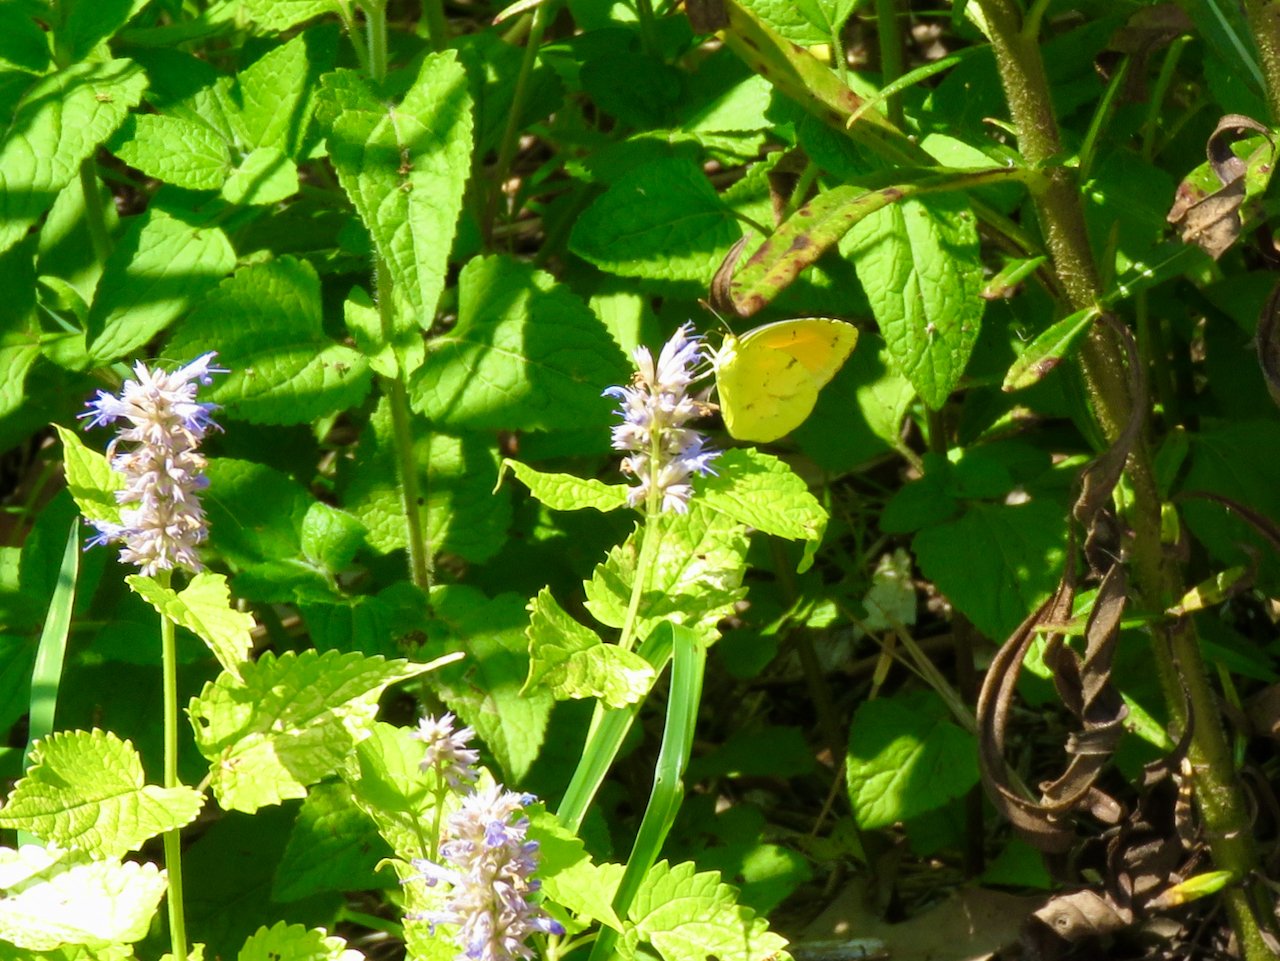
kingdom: Animalia
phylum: Arthropoda
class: Insecta
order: Lepidoptera
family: Pieridae
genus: Abaeis
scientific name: Abaeis nicippe
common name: Sleepy Orange
